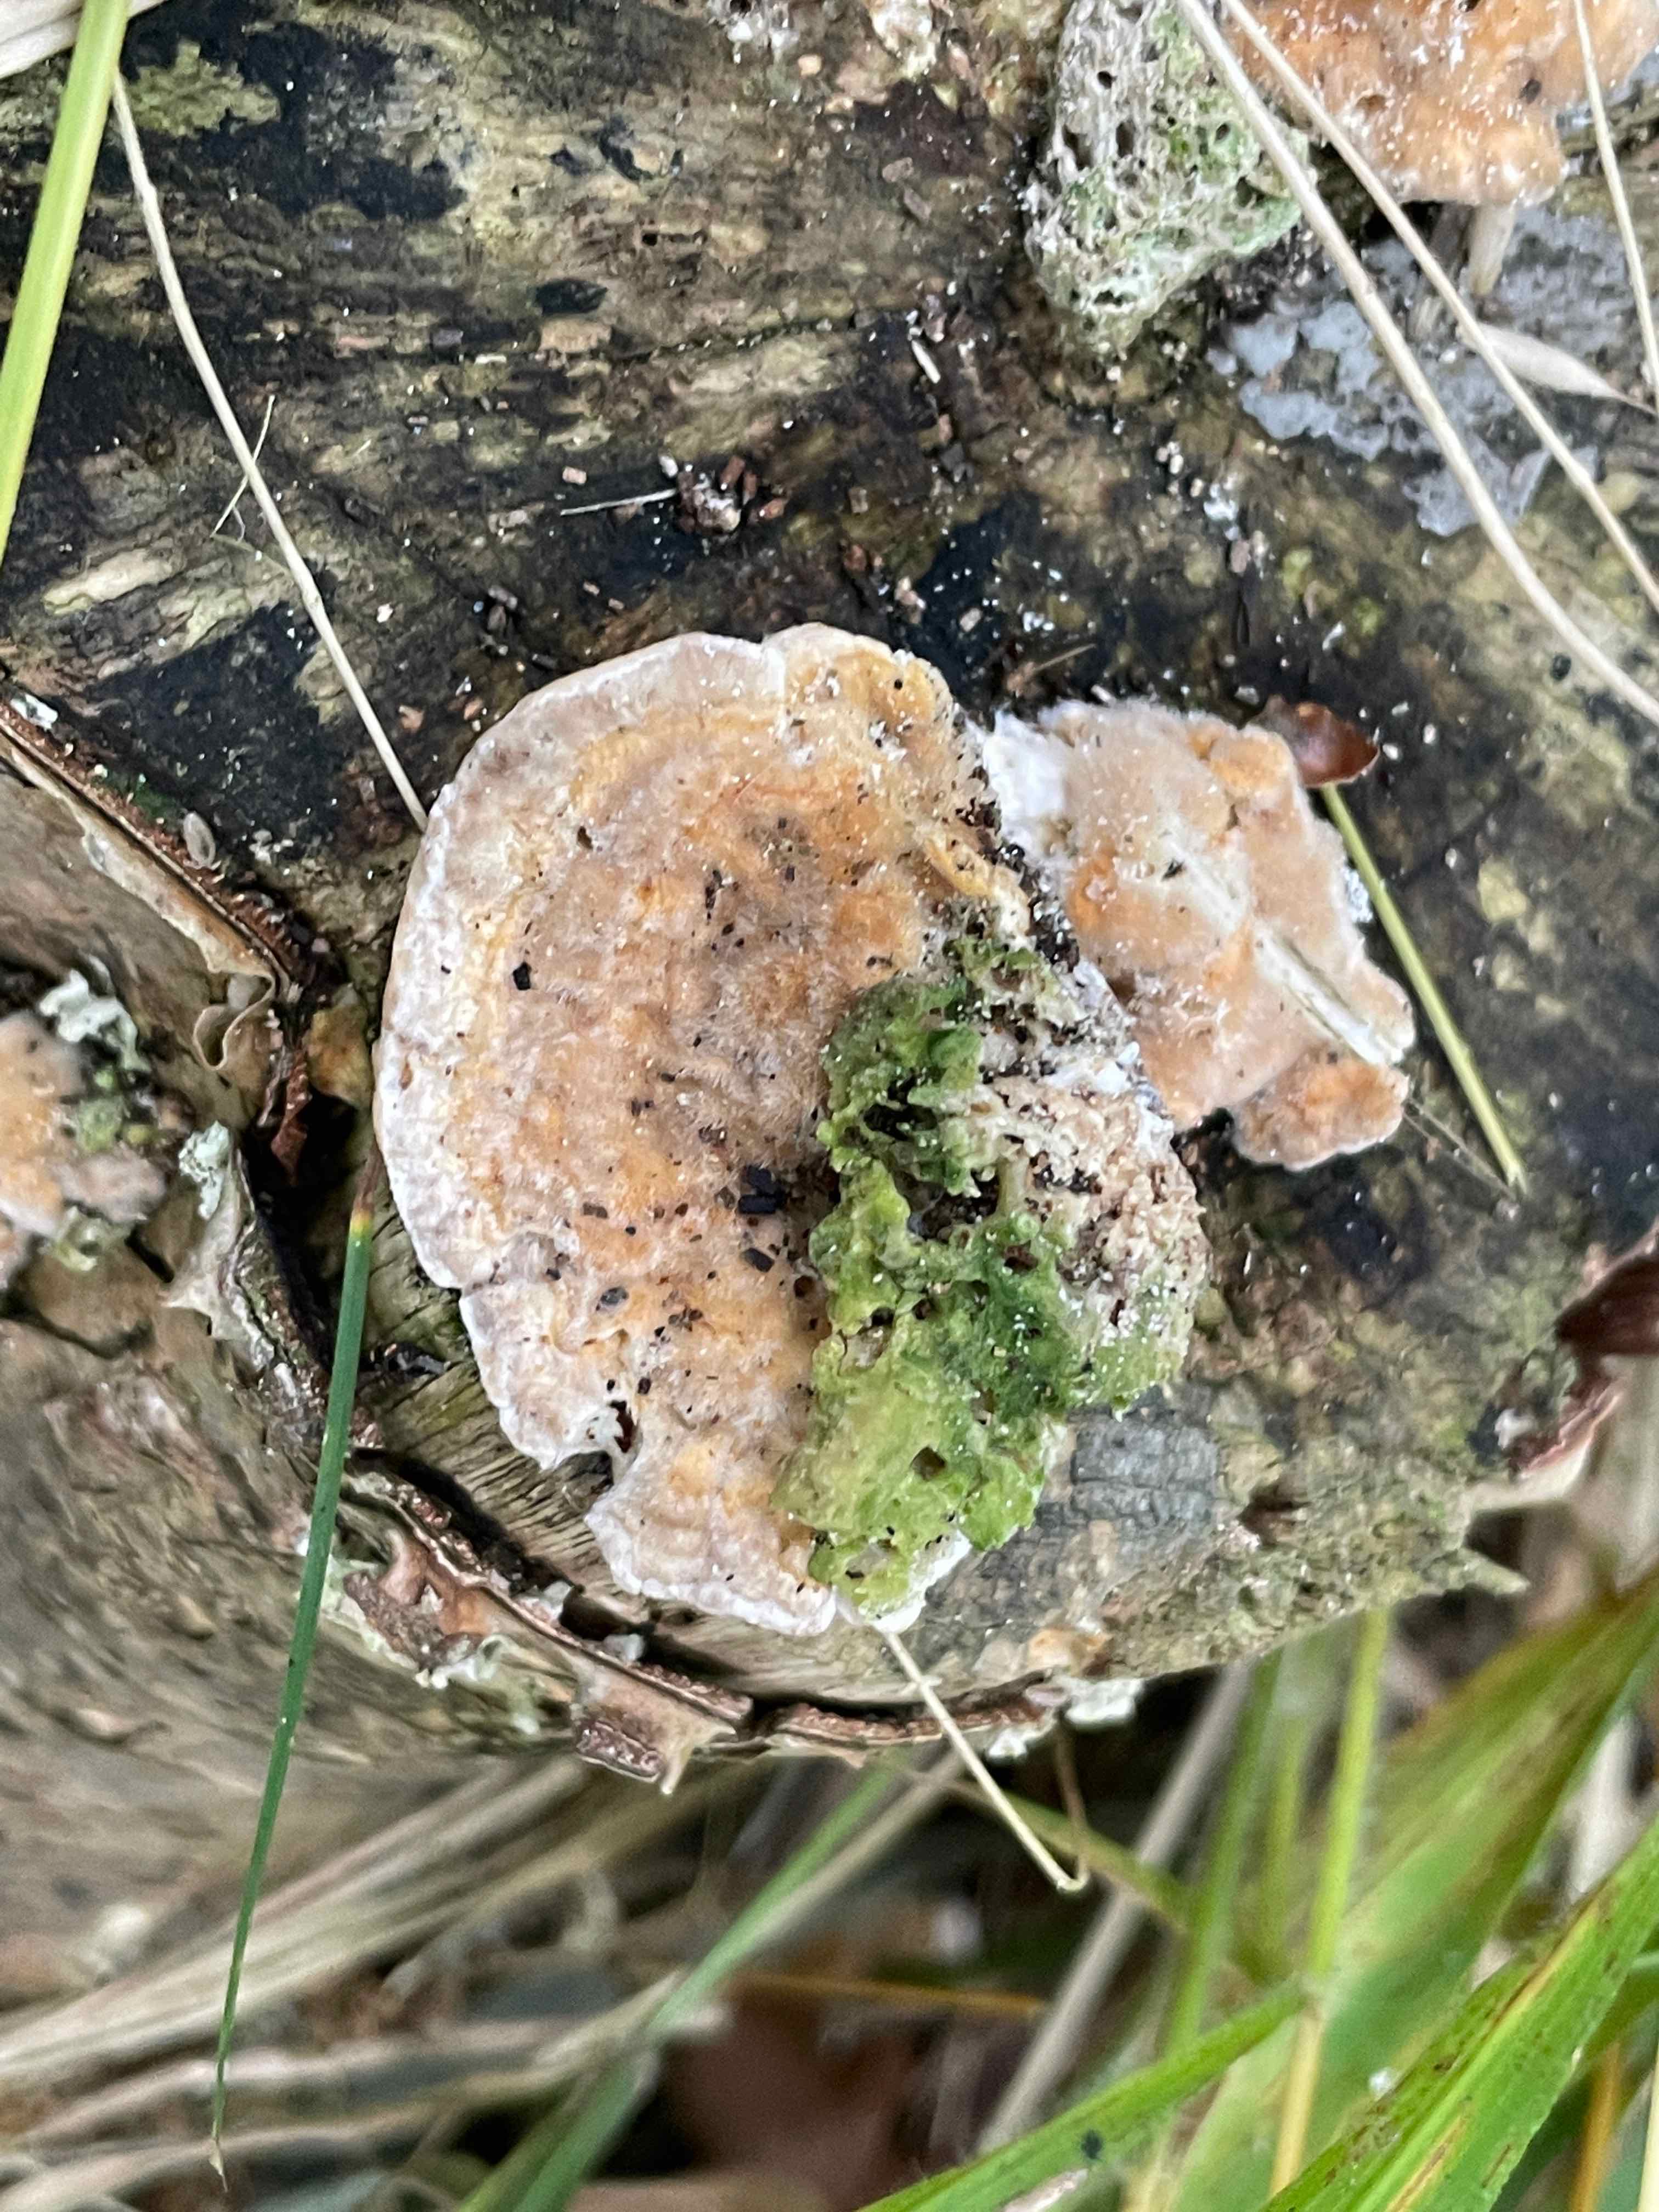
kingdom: Fungi
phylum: Basidiomycota
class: Agaricomycetes
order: Polyporales
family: Polyporaceae
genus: Lenzites
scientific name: Lenzites betulinus
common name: birke-læderporesvamp
